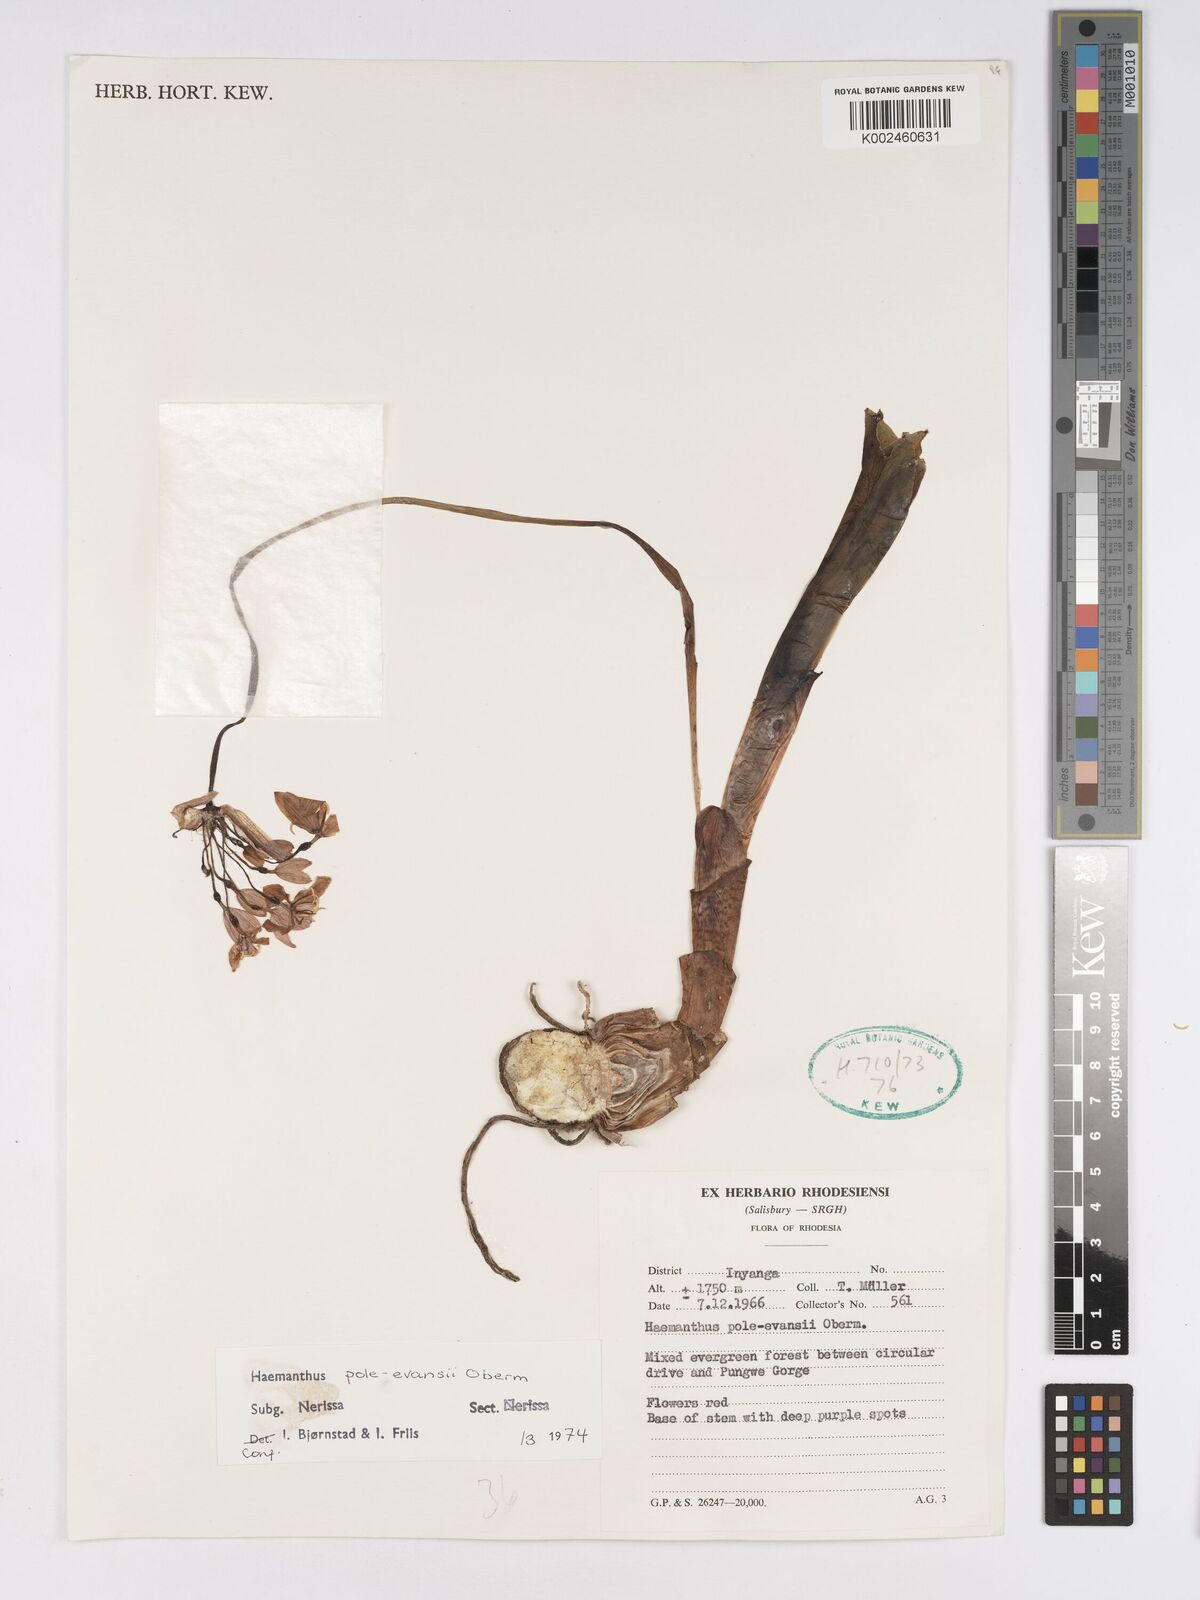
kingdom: Plantae
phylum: Tracheophyta
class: Liliopsida
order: Asparagales
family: Amaryllidaceae
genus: Scadoxus
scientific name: Scadoxus pole-evansii
